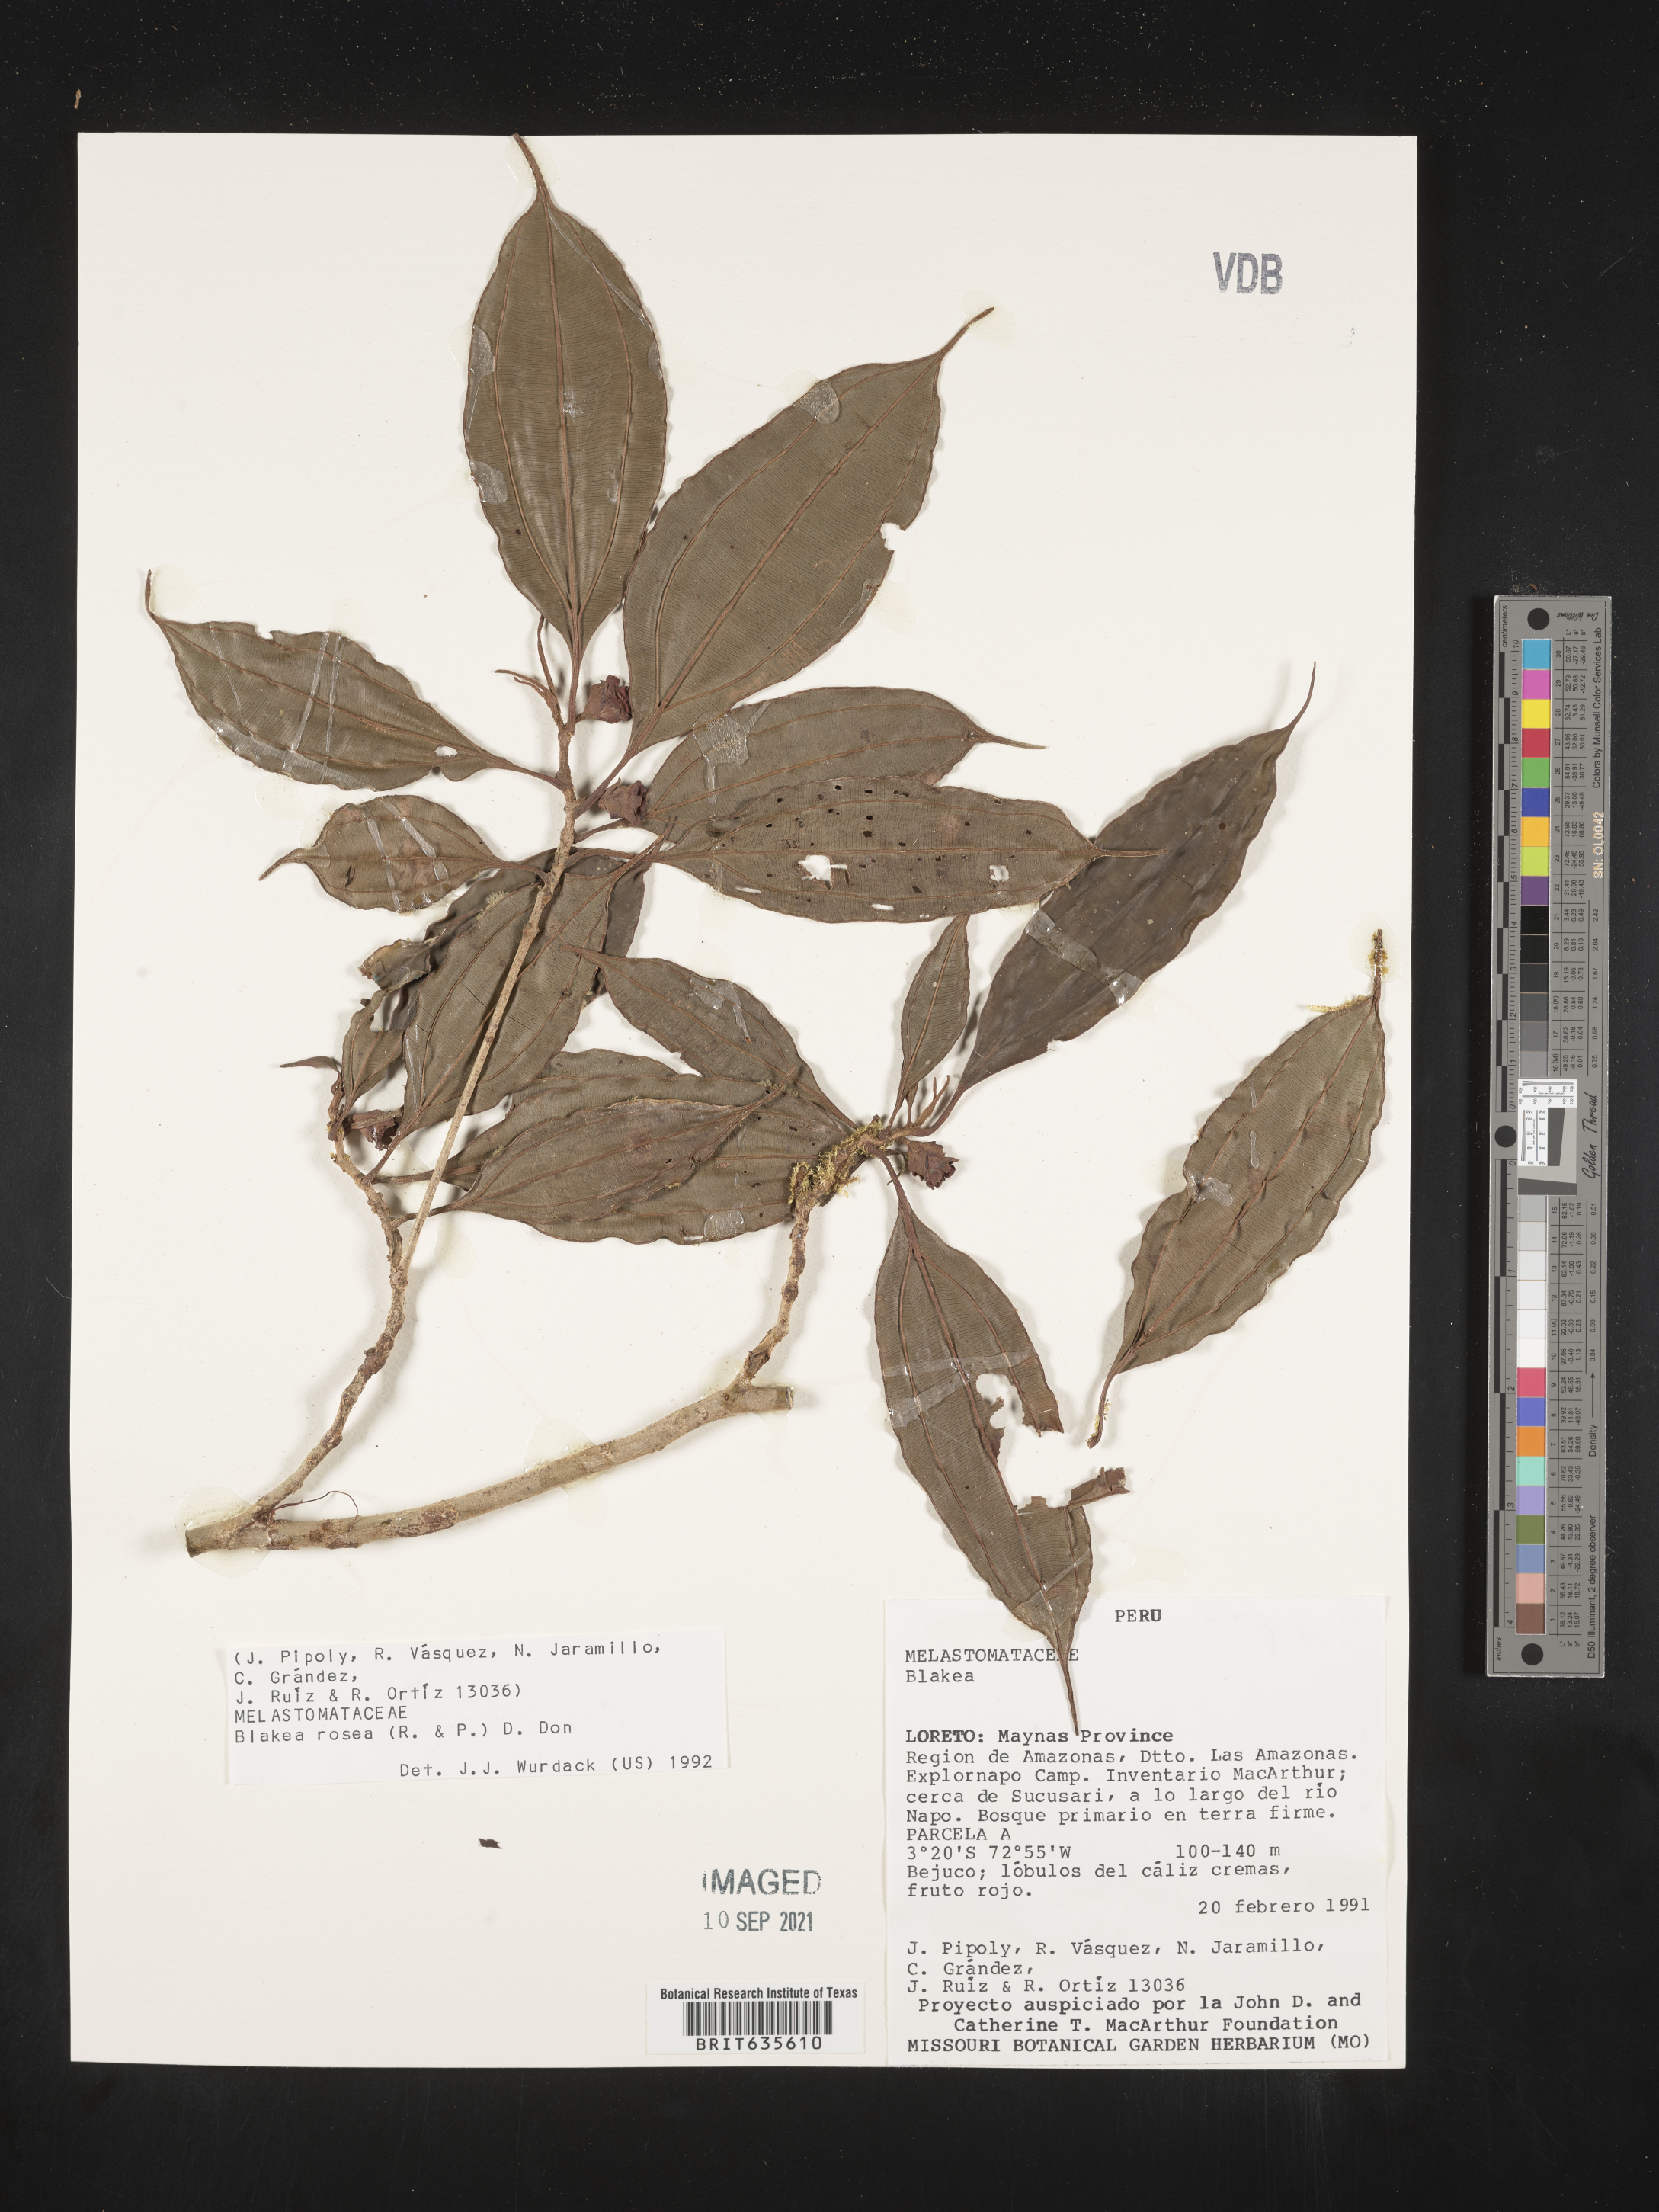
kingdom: Plantae
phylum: Tracheophyta
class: Magnoliopsida
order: Myrtales
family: Melastomataceae
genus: Blakea
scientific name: Blakea
